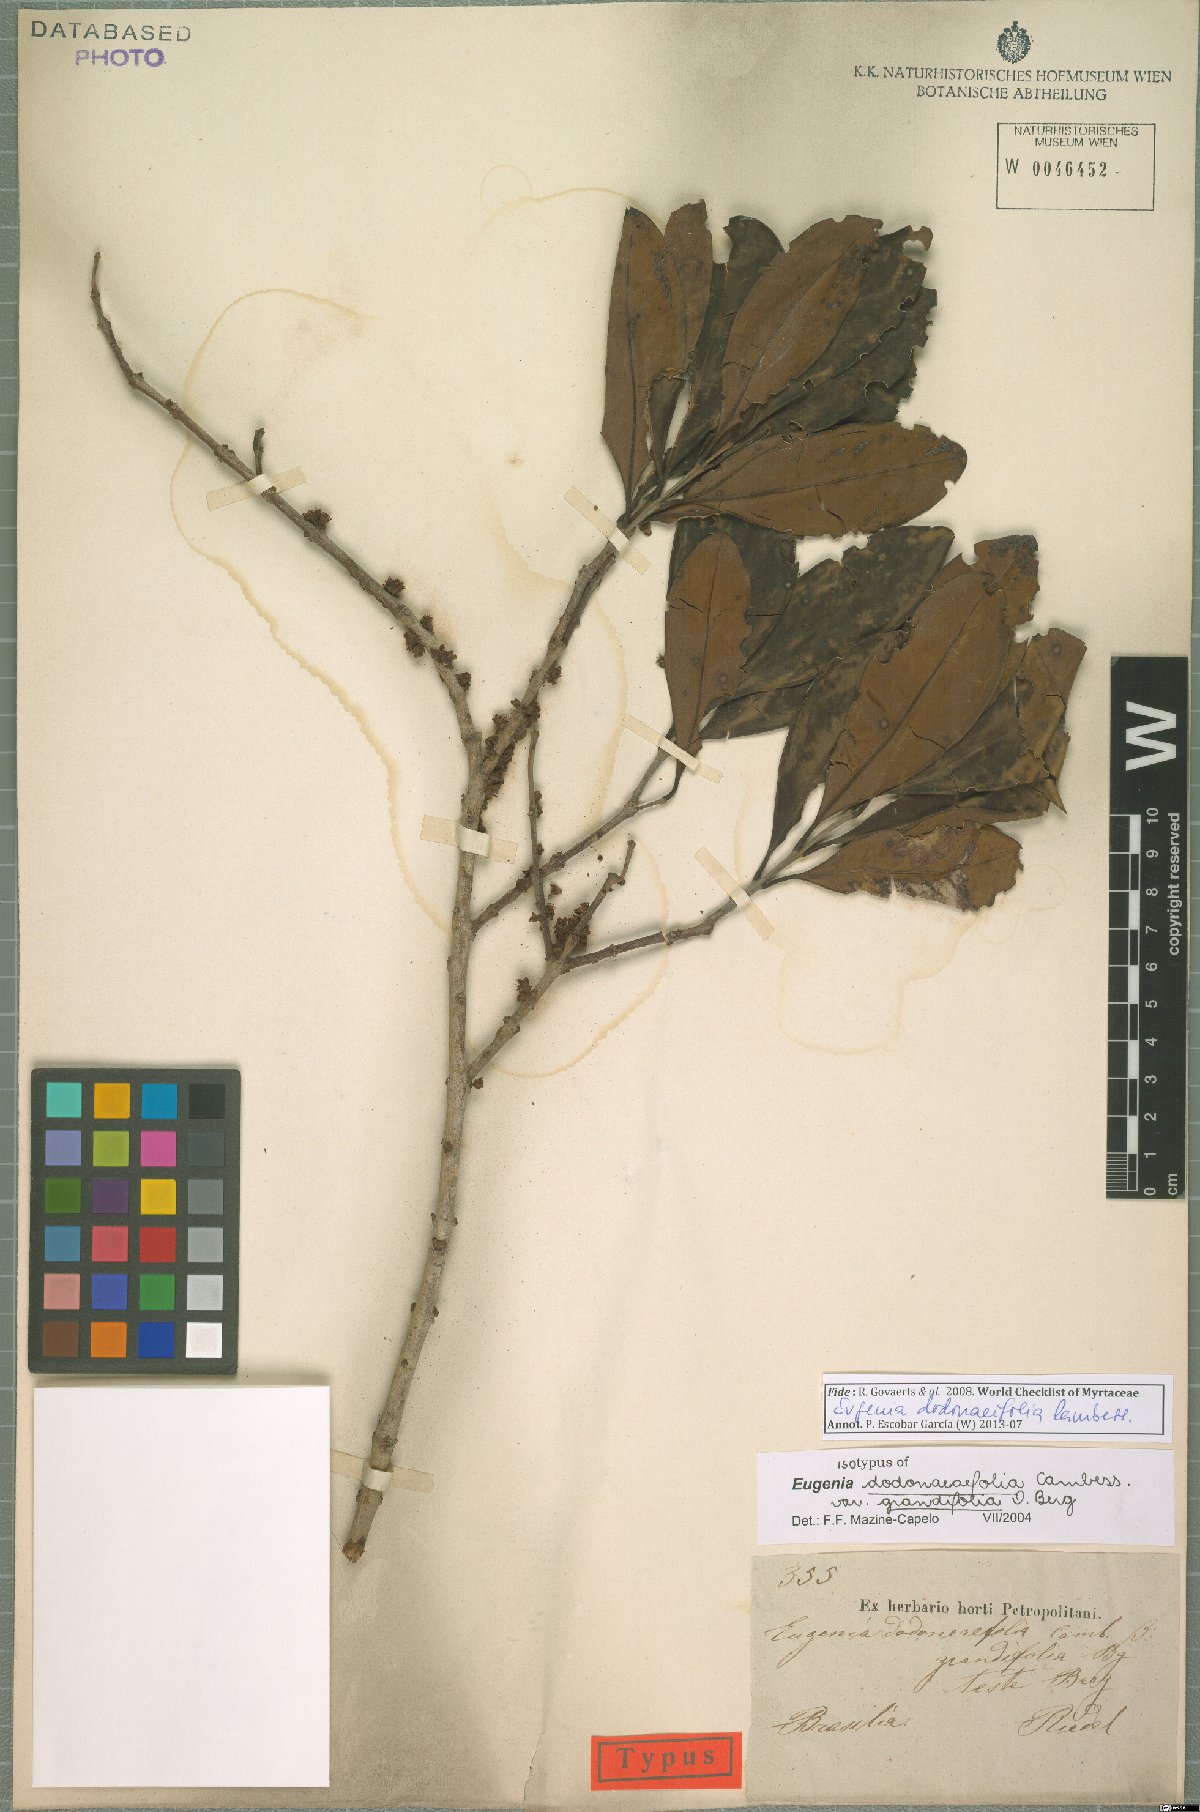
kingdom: Plantae
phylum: Tracheophyta
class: Magnoliopsida
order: Myrtales
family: Myrtaceae
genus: Eugenia
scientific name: Eugenia dodonaeifolia
